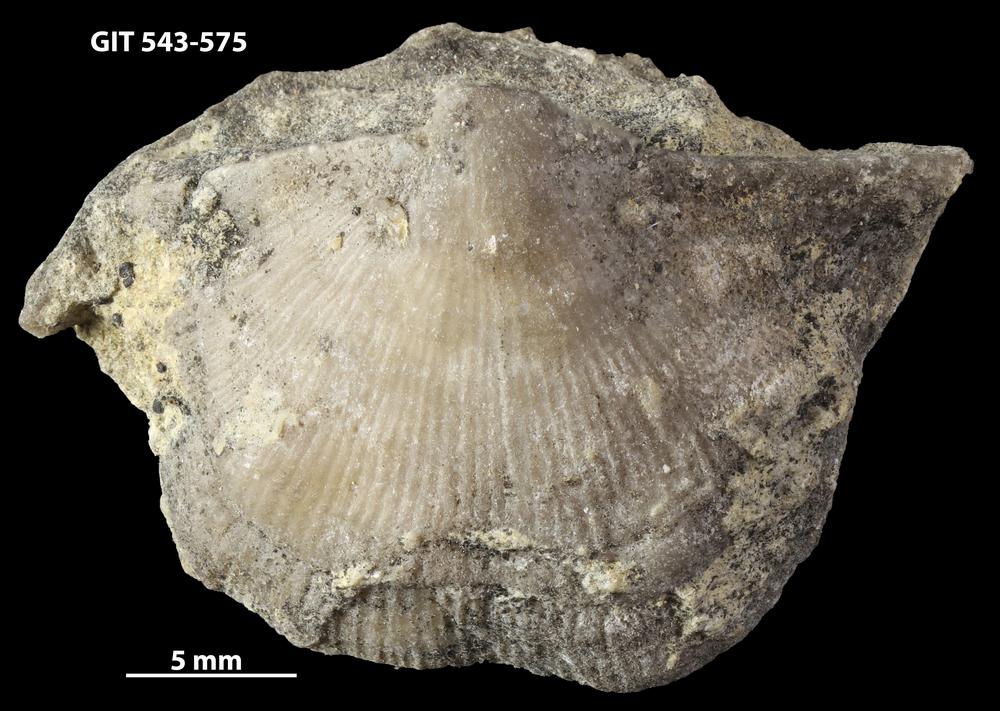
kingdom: Animalia
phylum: Brachiopoda
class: Rhynchonellata
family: Clitambonitidae
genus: Vellamo
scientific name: Vellamo emarginata
